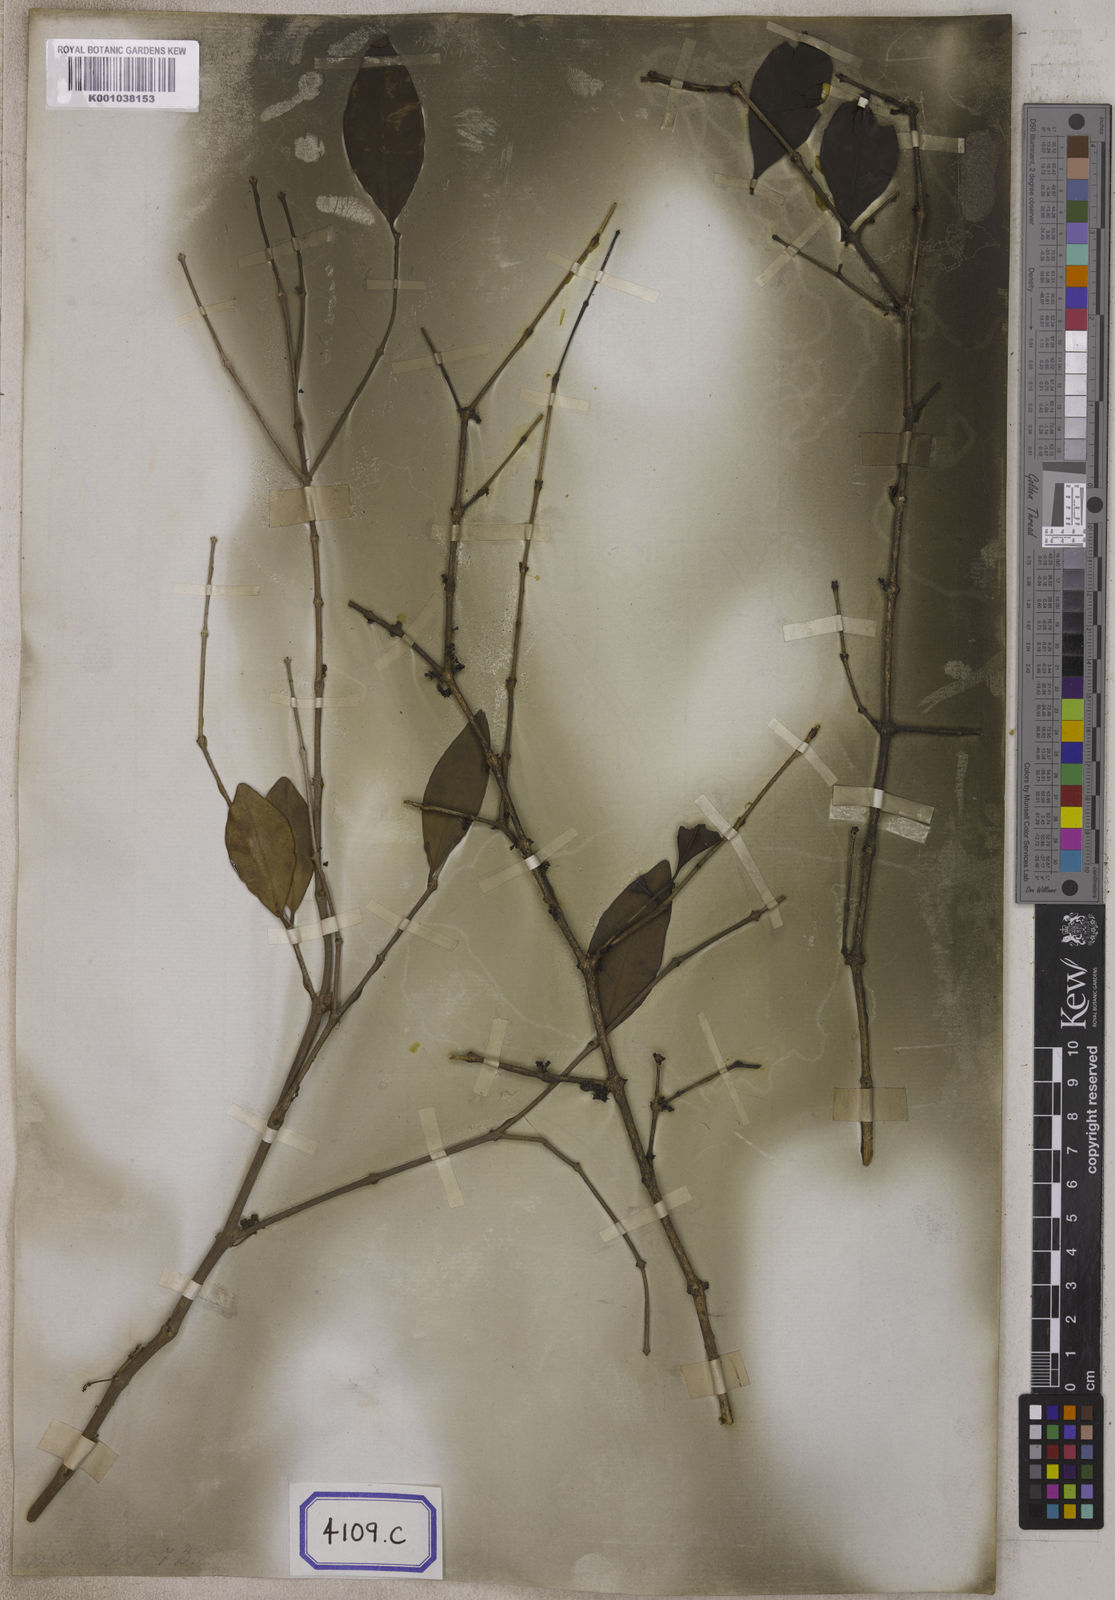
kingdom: Plantae
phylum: Tracheophyta
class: Magnoliopsida
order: Myrtales
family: Melastomataceae
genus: Memecylon
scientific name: Memecylon umbellatum
